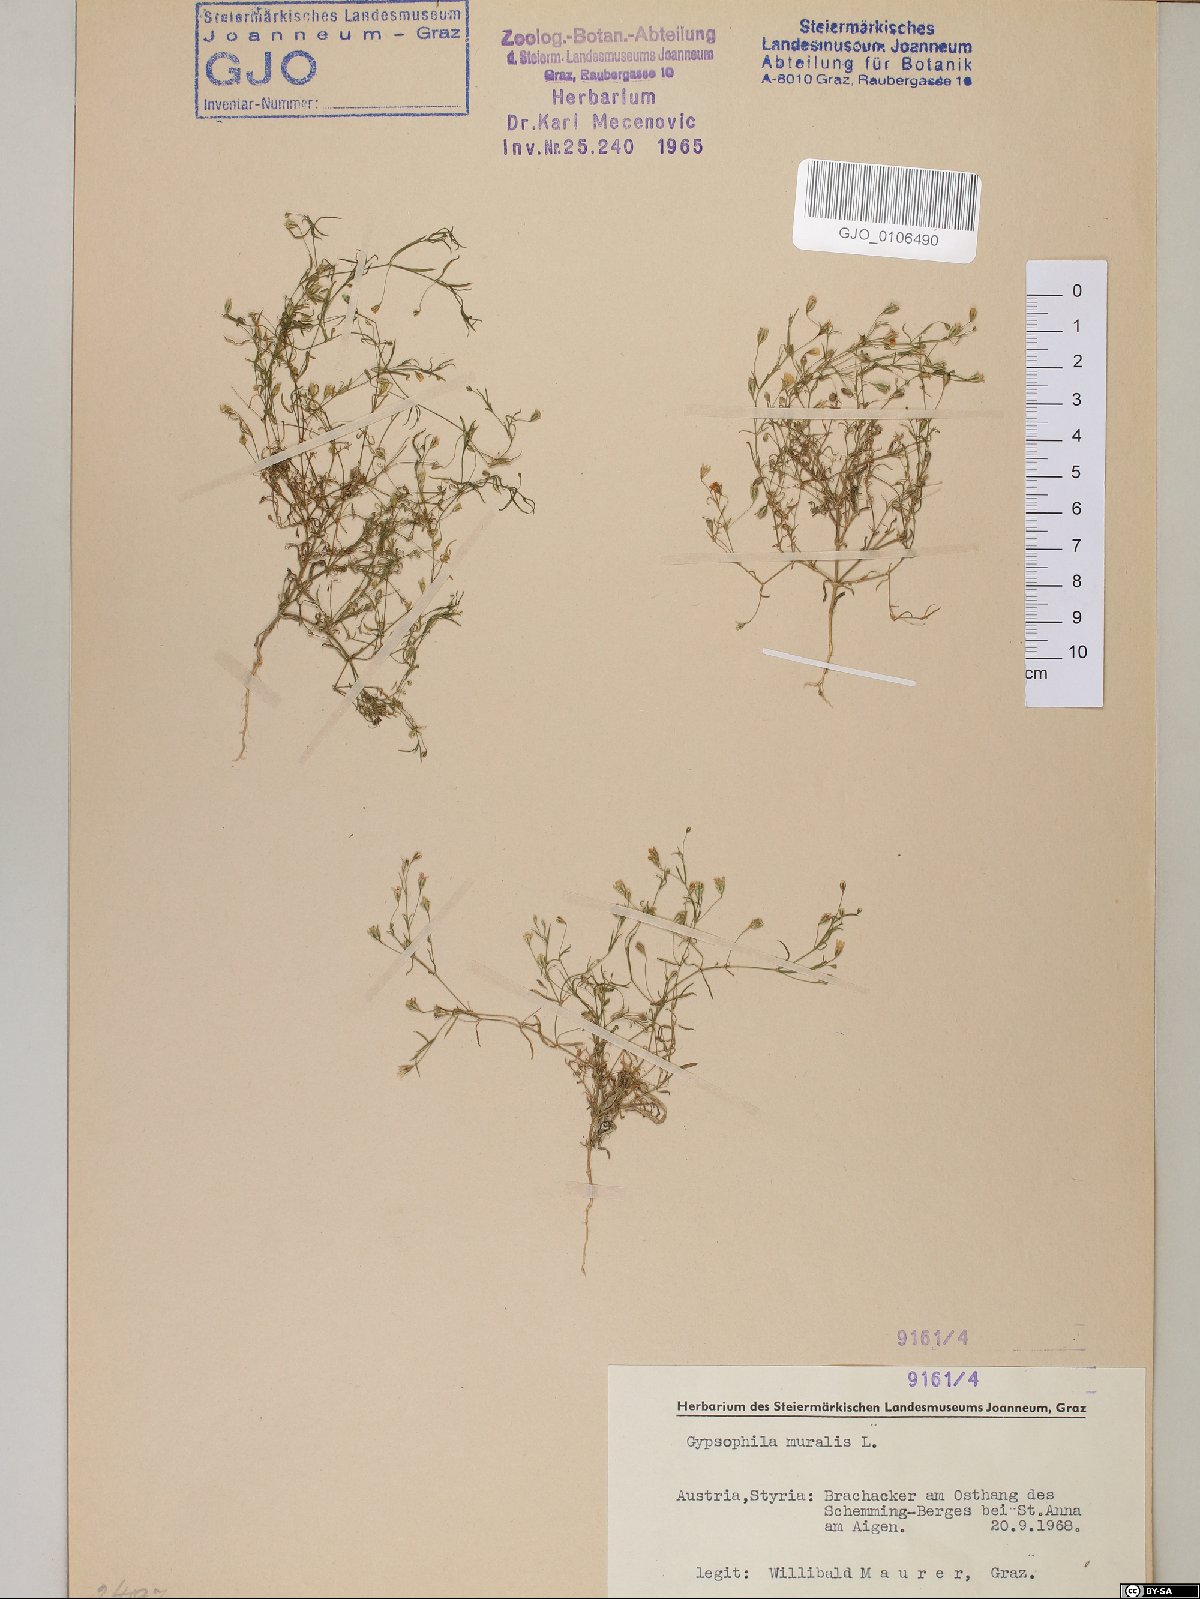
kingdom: Plantae
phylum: Tracheophyta
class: Magnoliopsida
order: Caryophyllales
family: Caryophyllaceae
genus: Psammophiliella
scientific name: Psammophiliella muralis
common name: Cushion baby's-breath
